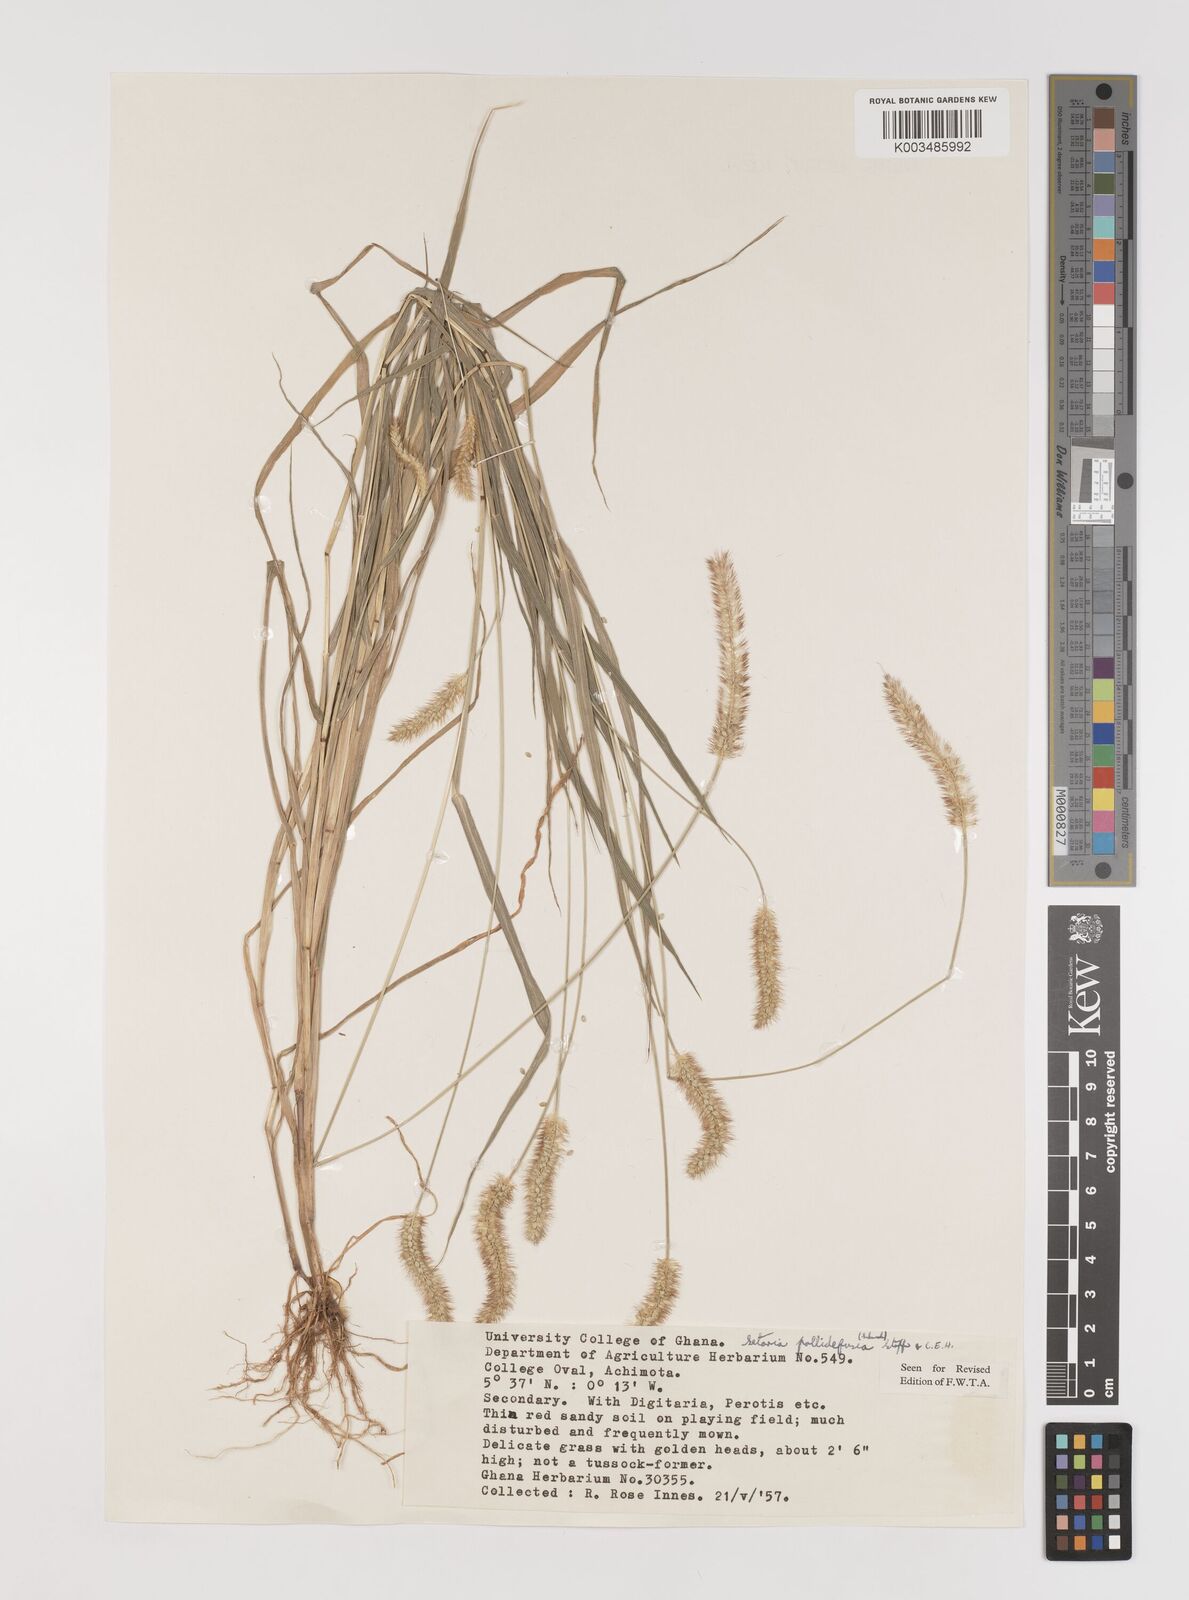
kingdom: Plantae
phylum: Tracheophyta
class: Liliopsida
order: Poales
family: Poaceae
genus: Setaria
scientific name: Setaria pumila
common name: Yellow bristle-grass
